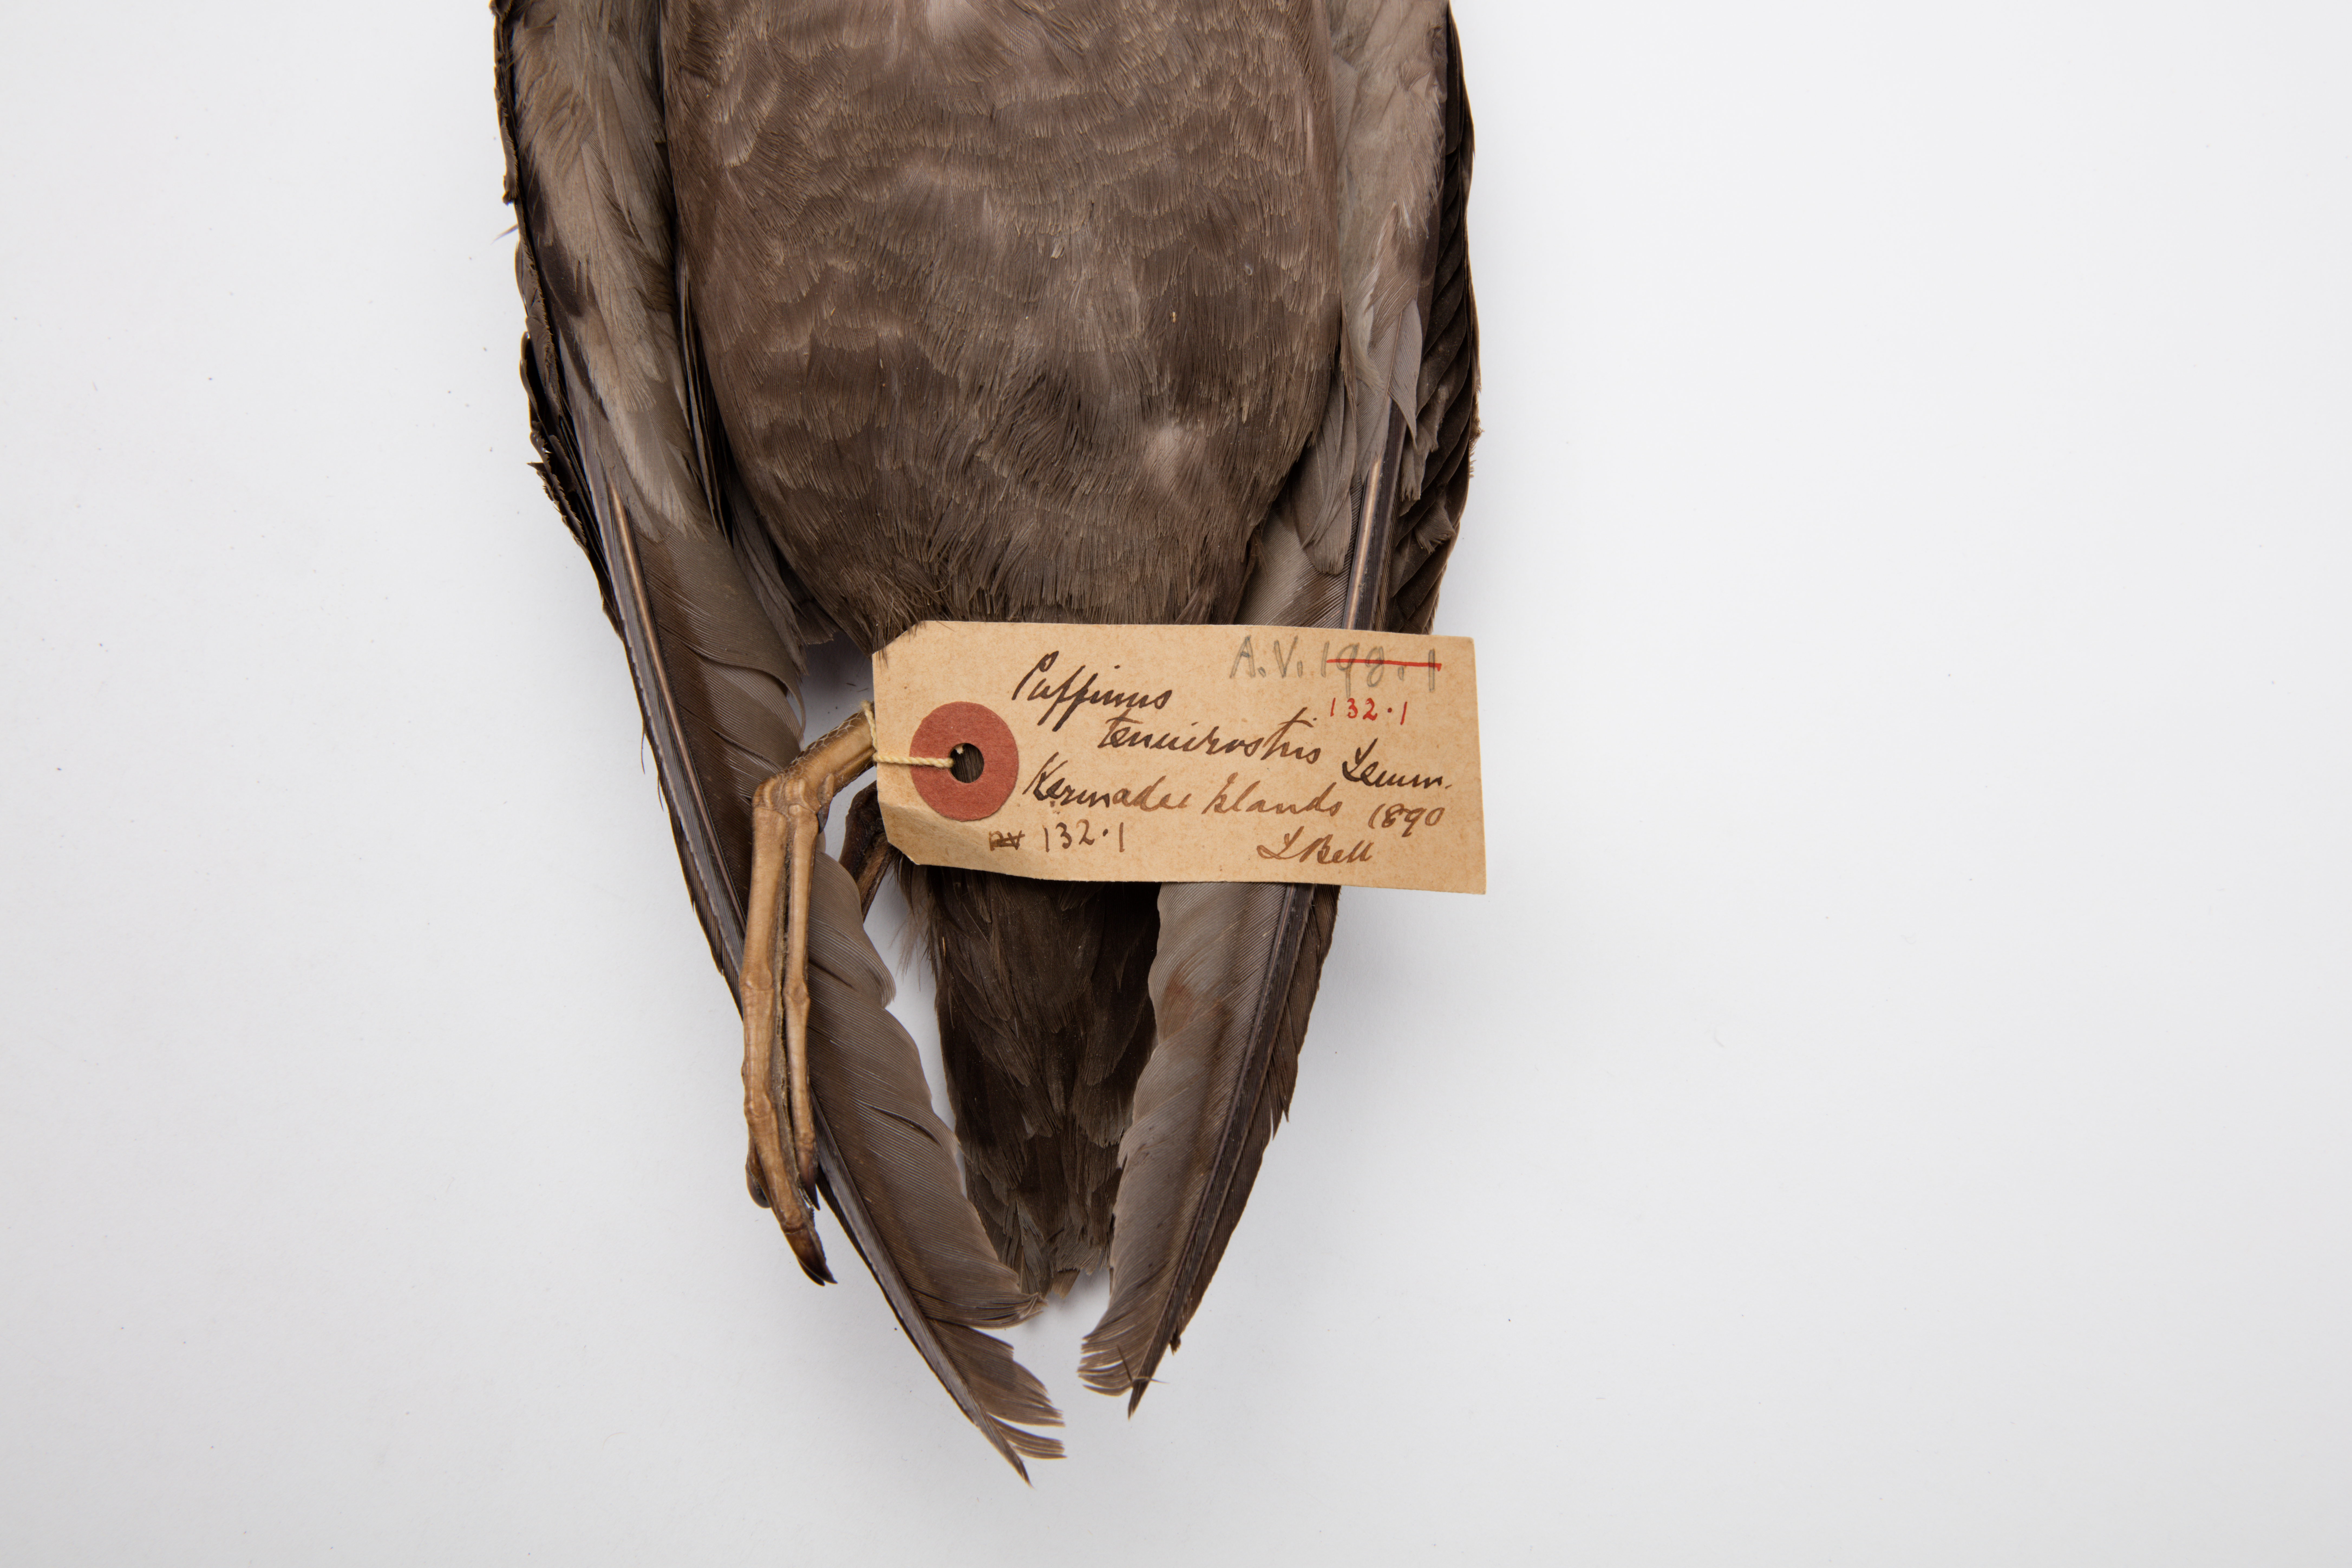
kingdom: Animalia
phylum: Chordata
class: Aves
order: Procellariiformes
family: Procellariidae
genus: Puffinus
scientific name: Puffinus tenuirostris
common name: Short-tailed shearwater
